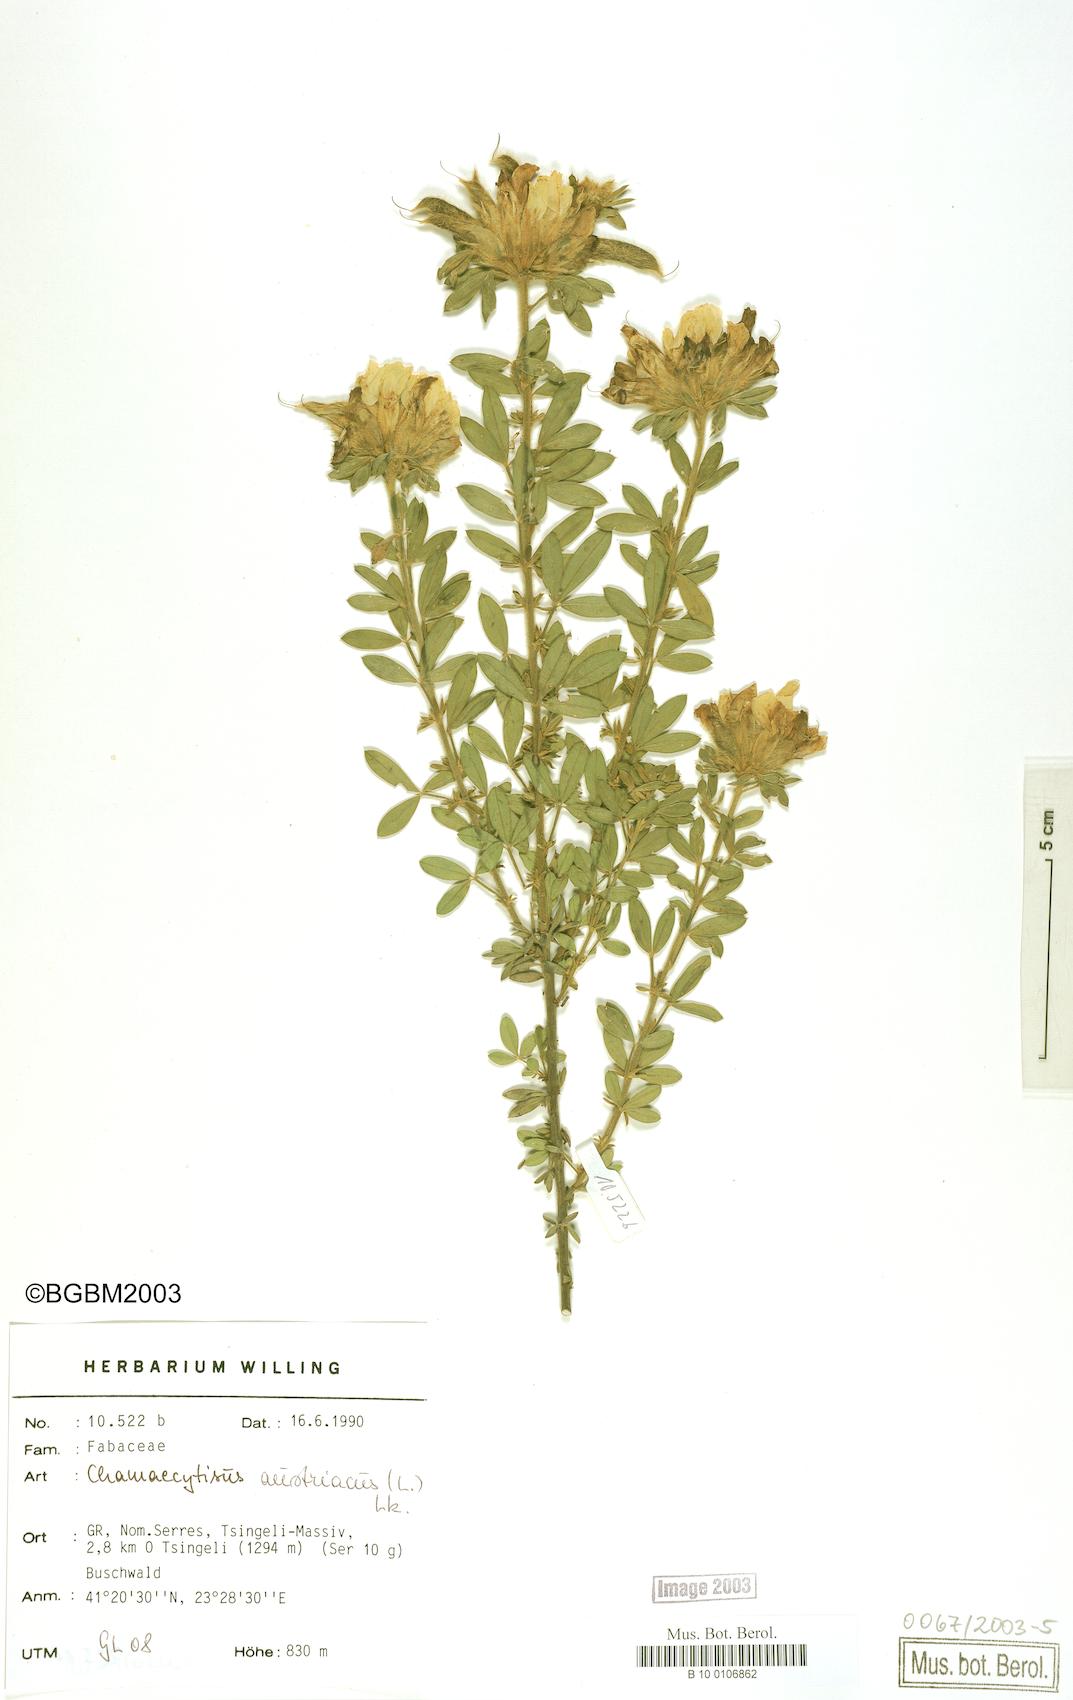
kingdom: Plantae
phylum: Tracheophyta
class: Magnoliopsida
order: Fabales
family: Fabaceae
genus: Chamaecytisus
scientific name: Chamaecytisus austriacus
